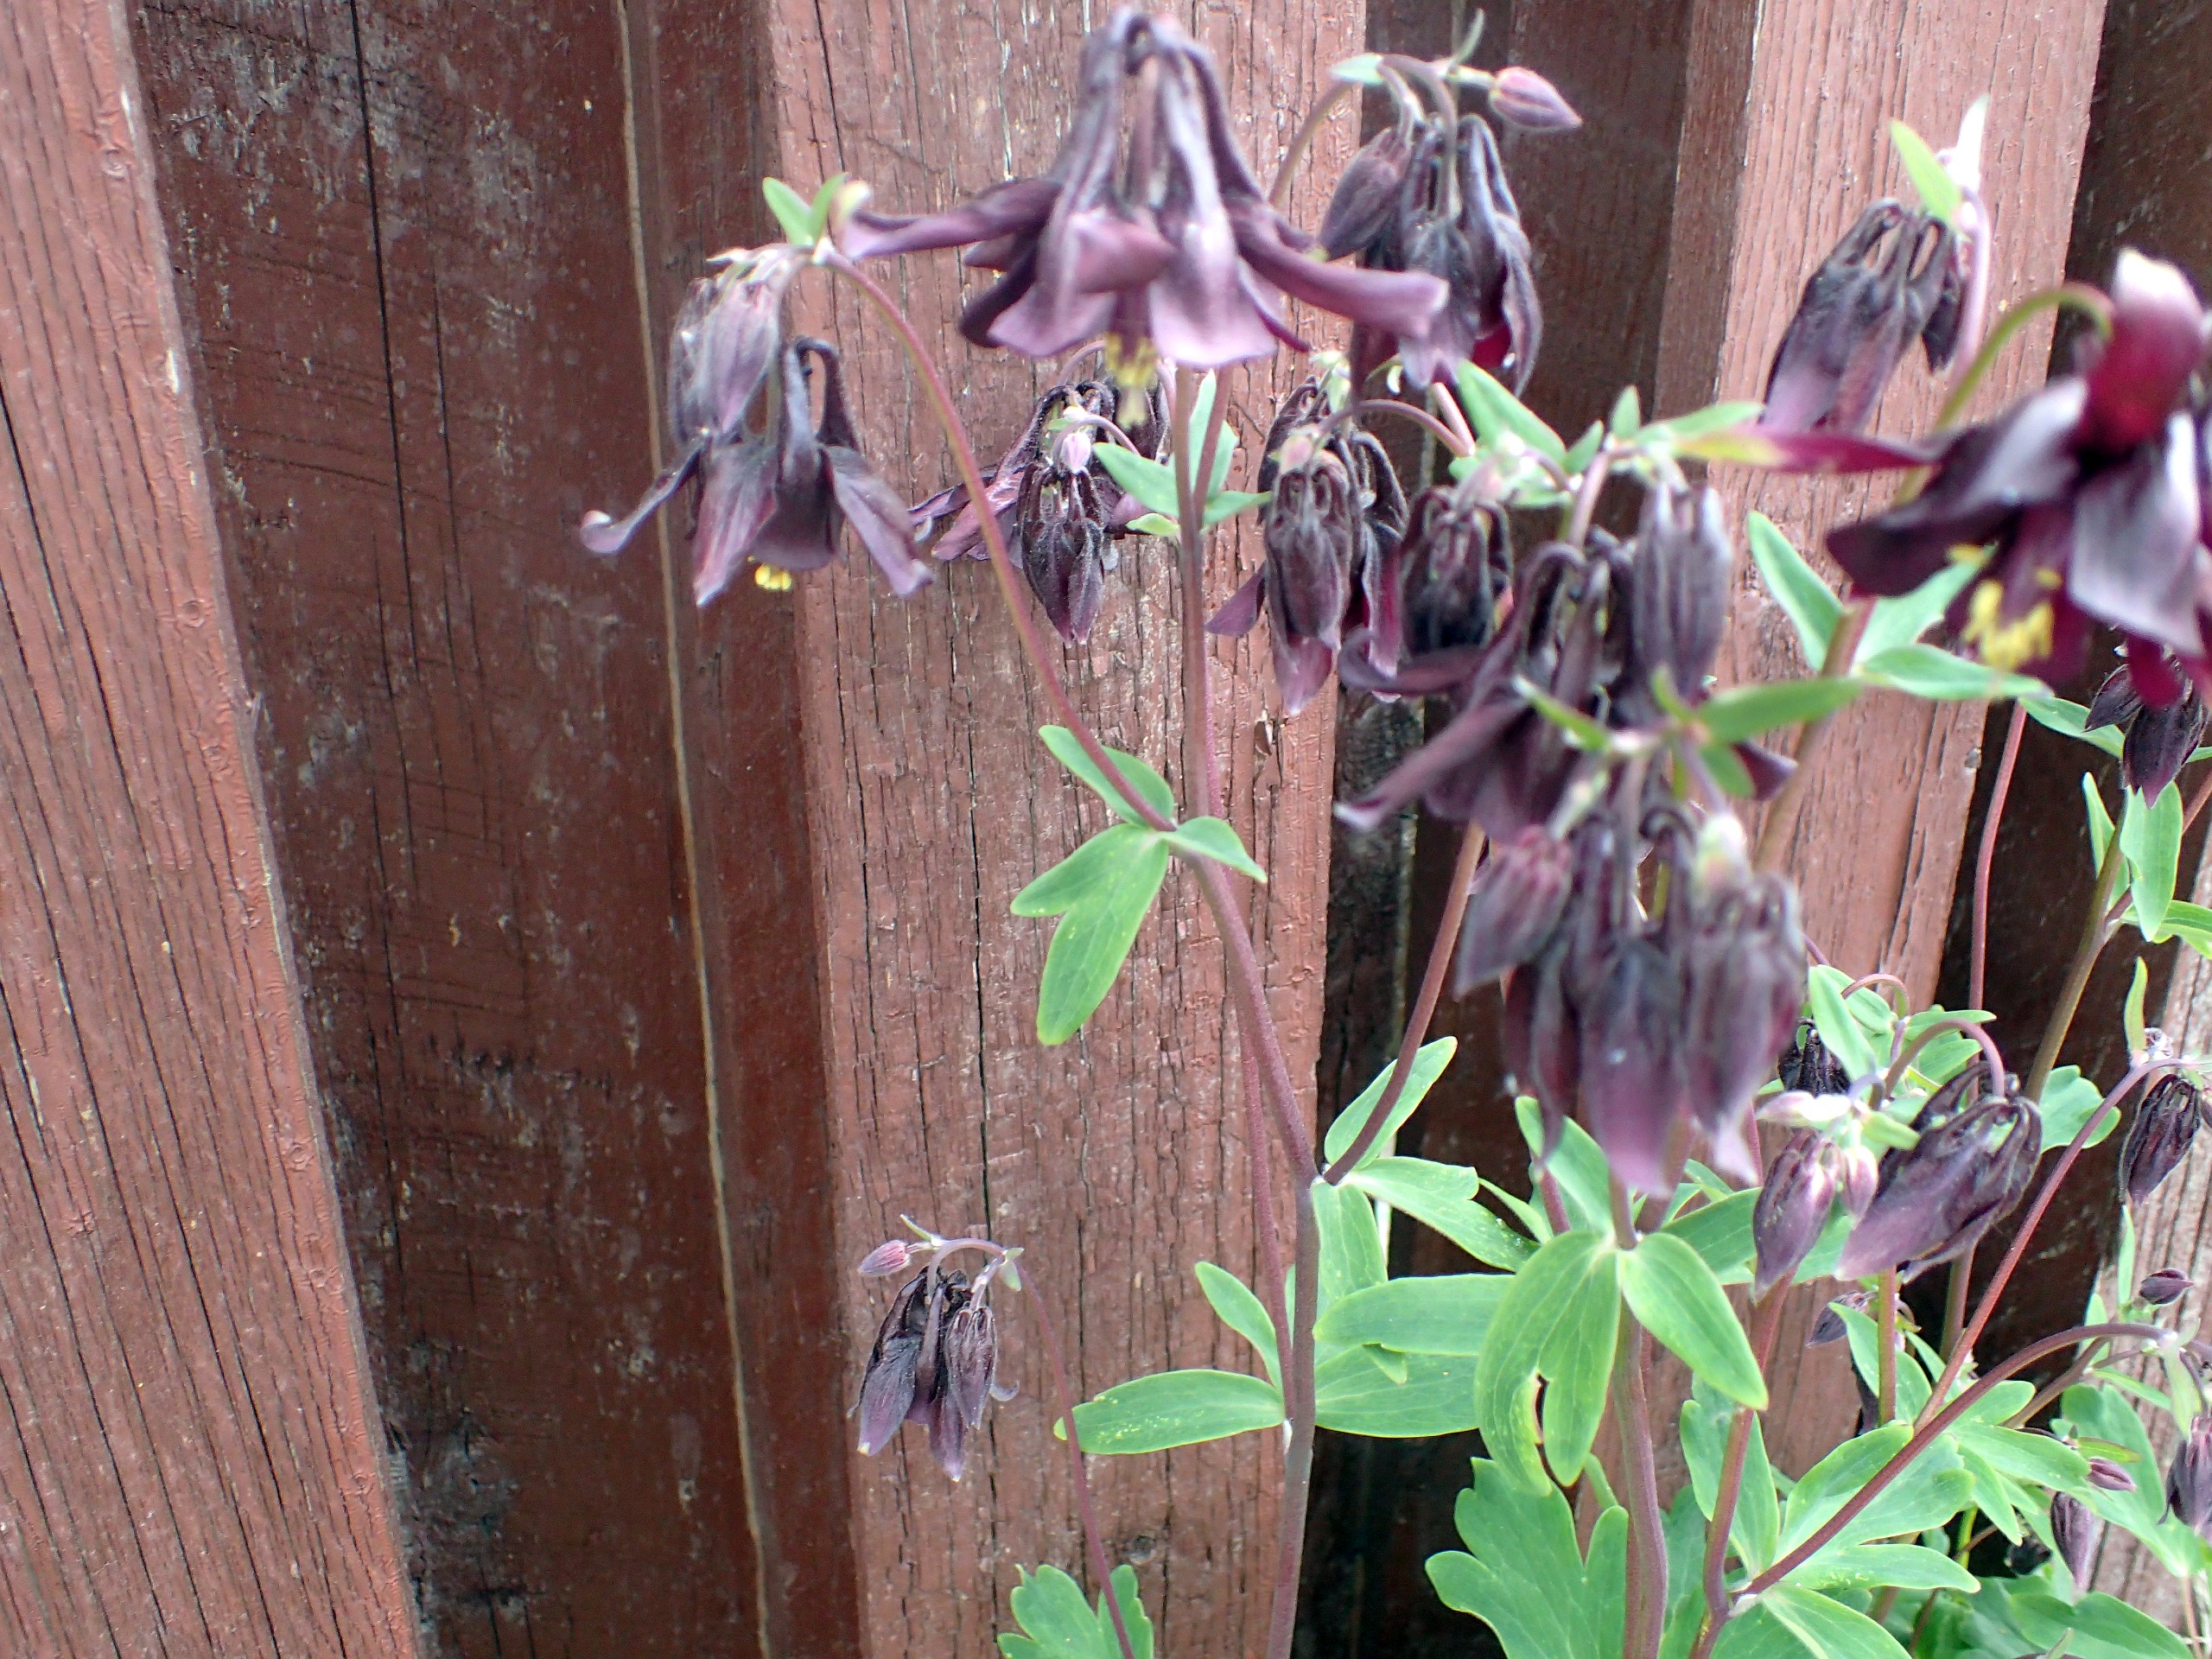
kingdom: Plantae
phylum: Tracheophyta
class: Magnoliopsida
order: Ranunculales
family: Ranunculaceae
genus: Aquilegia
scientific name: Aquilegia vulgaris
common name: Akeleje
